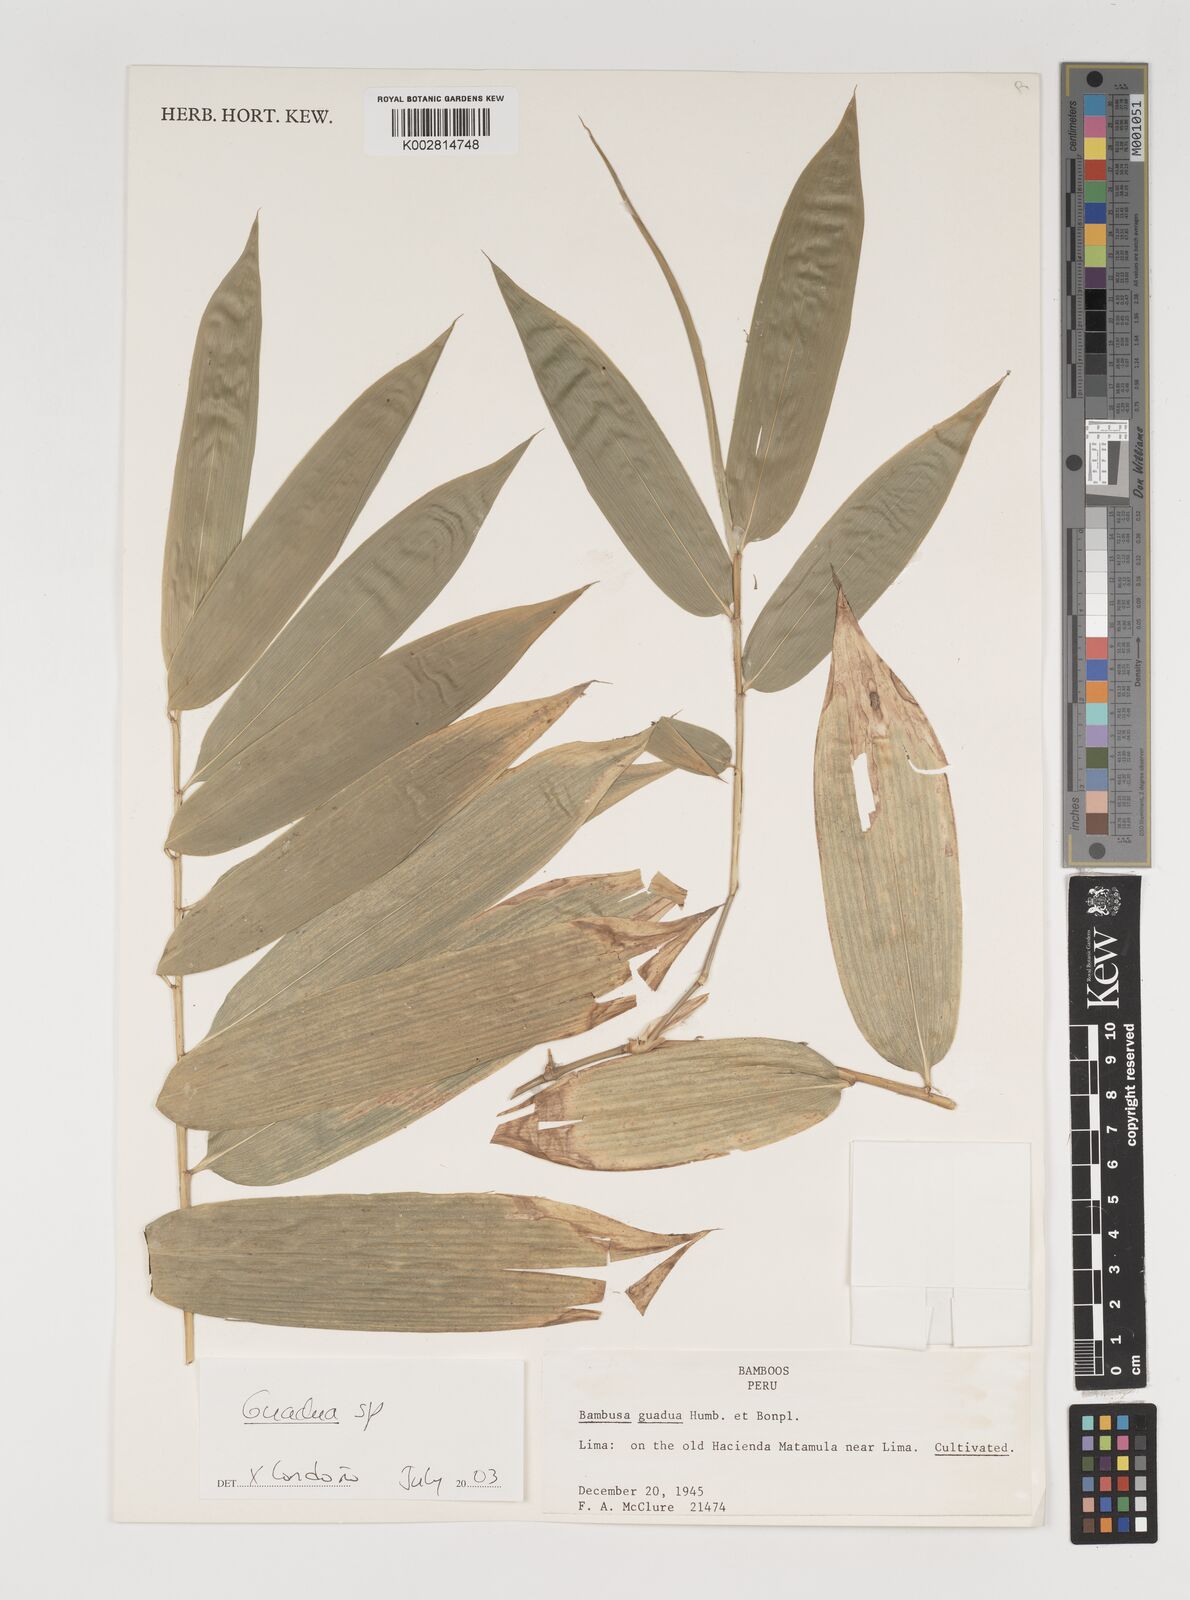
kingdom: Plantae
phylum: Tracheophyta
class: Liliopsida
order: Poales
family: Poaceae
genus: Guadua
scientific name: Guadua
